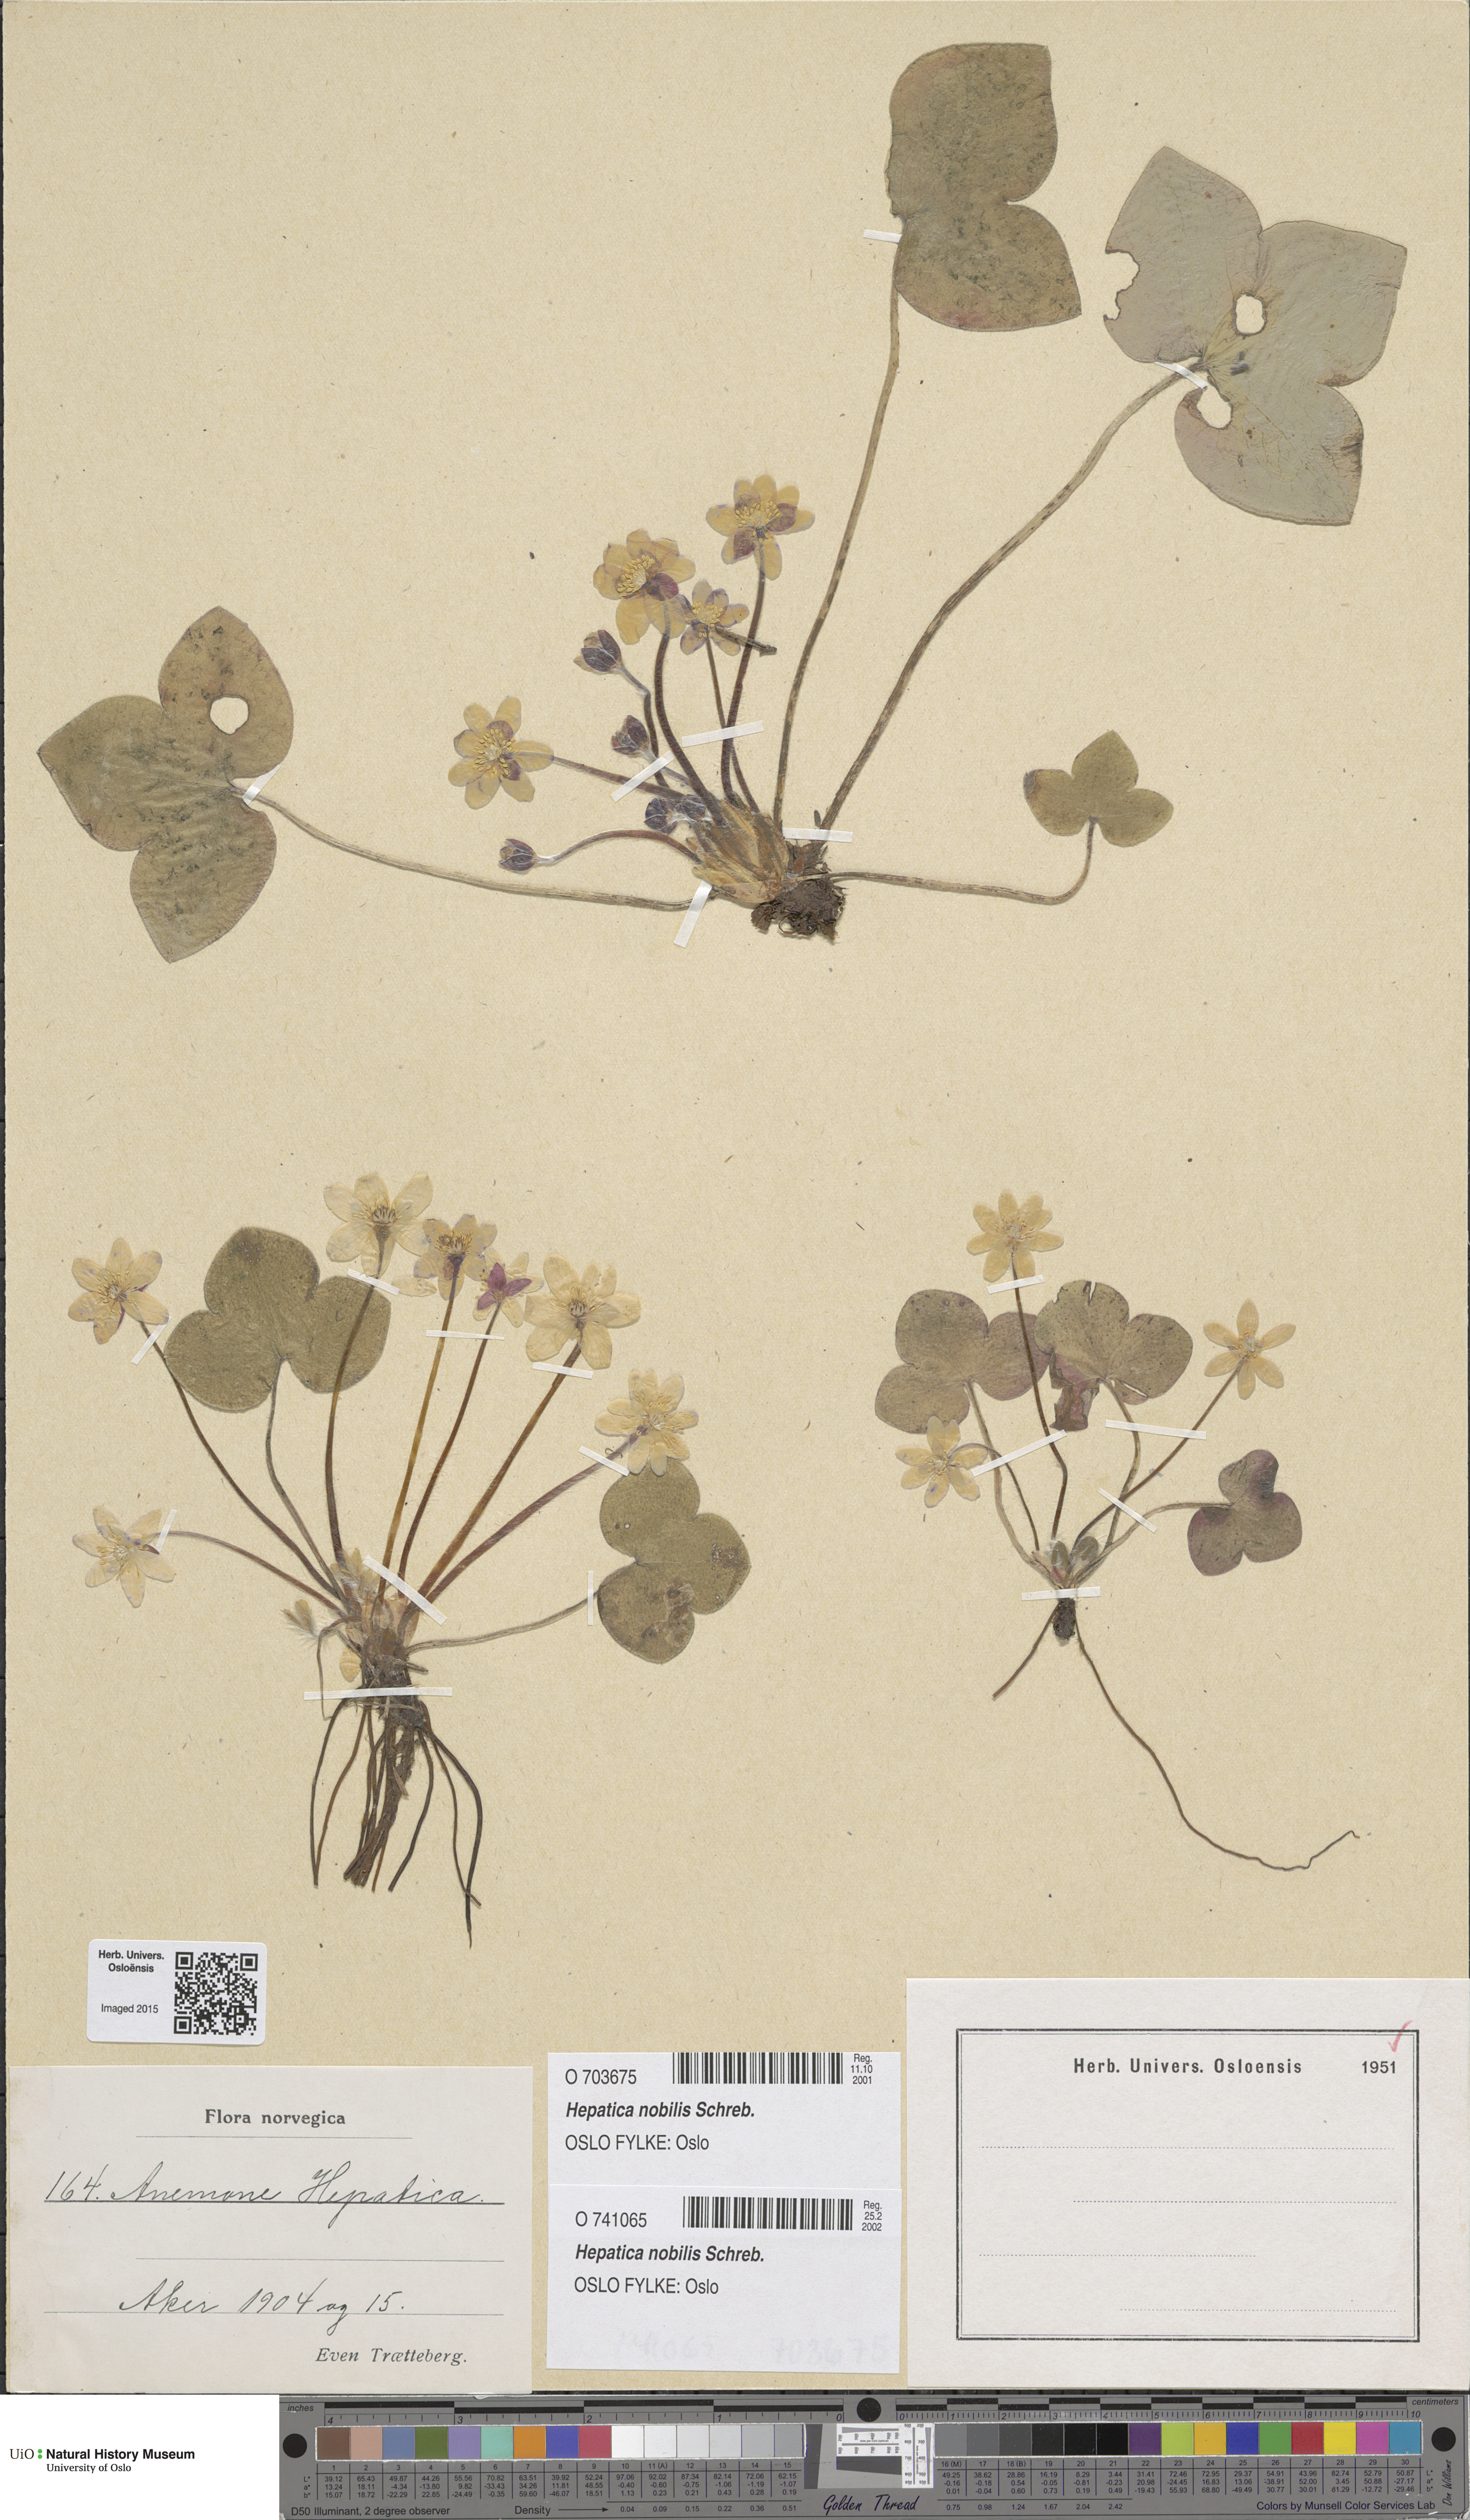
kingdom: Plantae
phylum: Tracheophyta
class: Magnoliopsida
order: Ranunculales
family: Ranunculaceae
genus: Hepatica
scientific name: Hepatica nobilis
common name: Liverleaf
